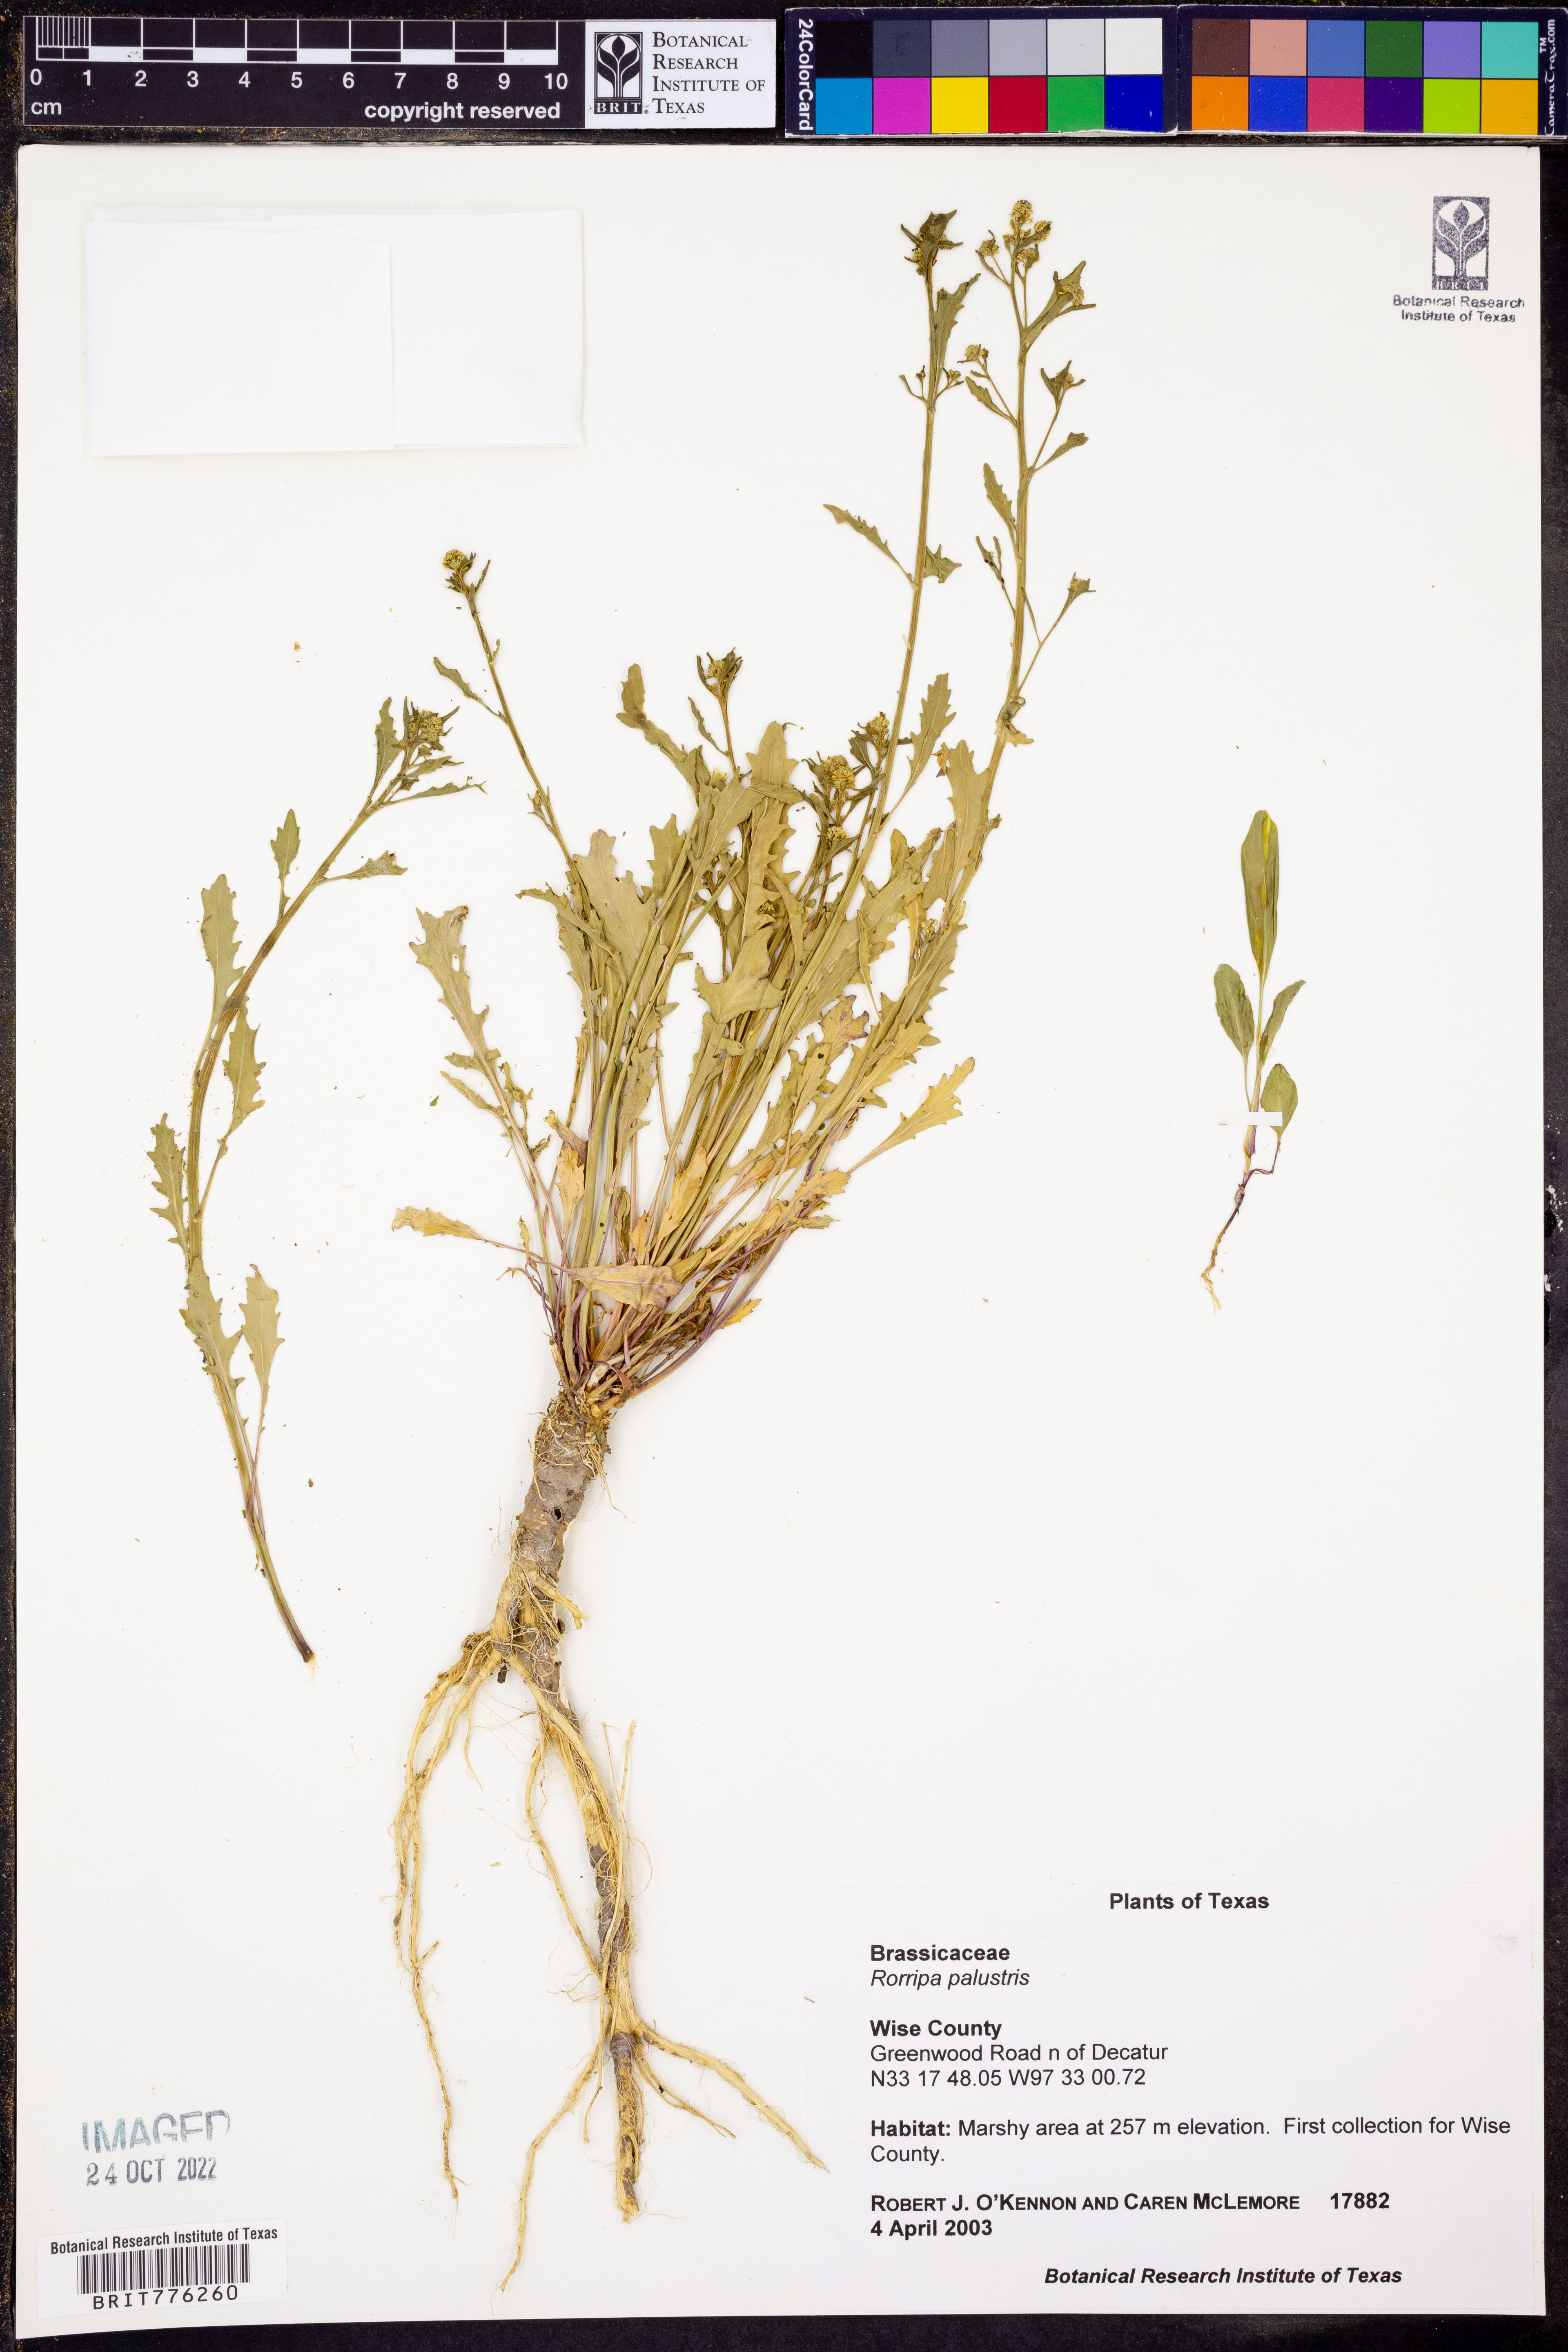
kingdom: Plantae
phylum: Tracheophyta
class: Magnoliopsida
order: Brassicales
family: Brassicaceae
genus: Rorippa
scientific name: Rorippa palustris
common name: Marsh yellow-cress
